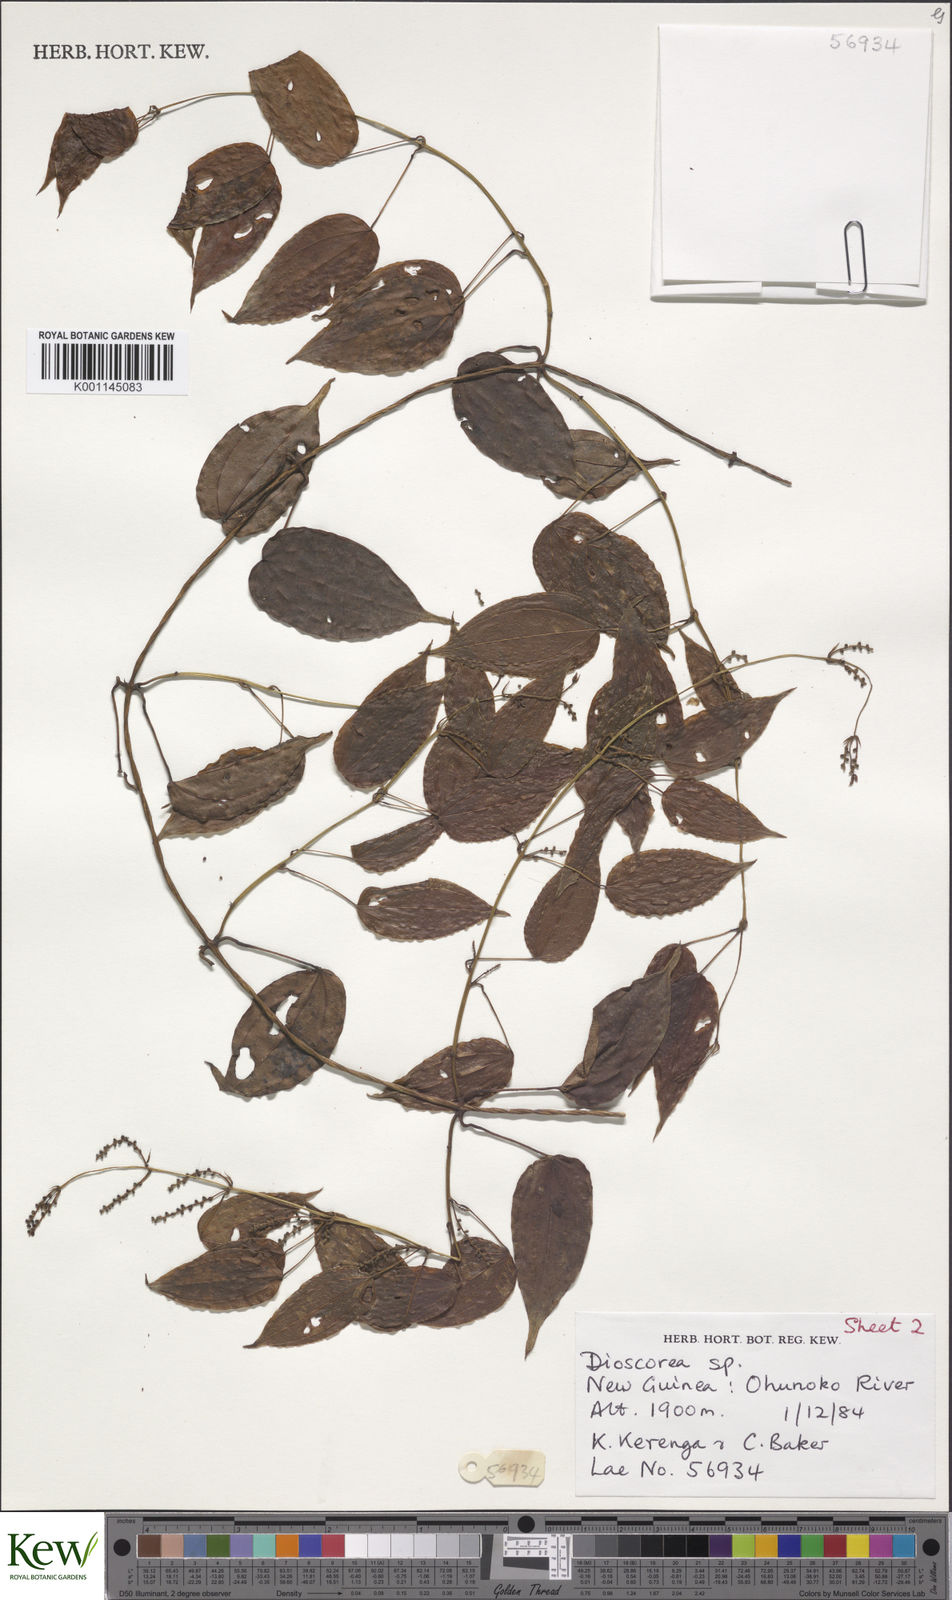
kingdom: Plantae
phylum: Tracheophyta
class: Liliopsida
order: Dioscoreales
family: Dioscoreaceae
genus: Dioscorea
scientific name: Dioscorea
